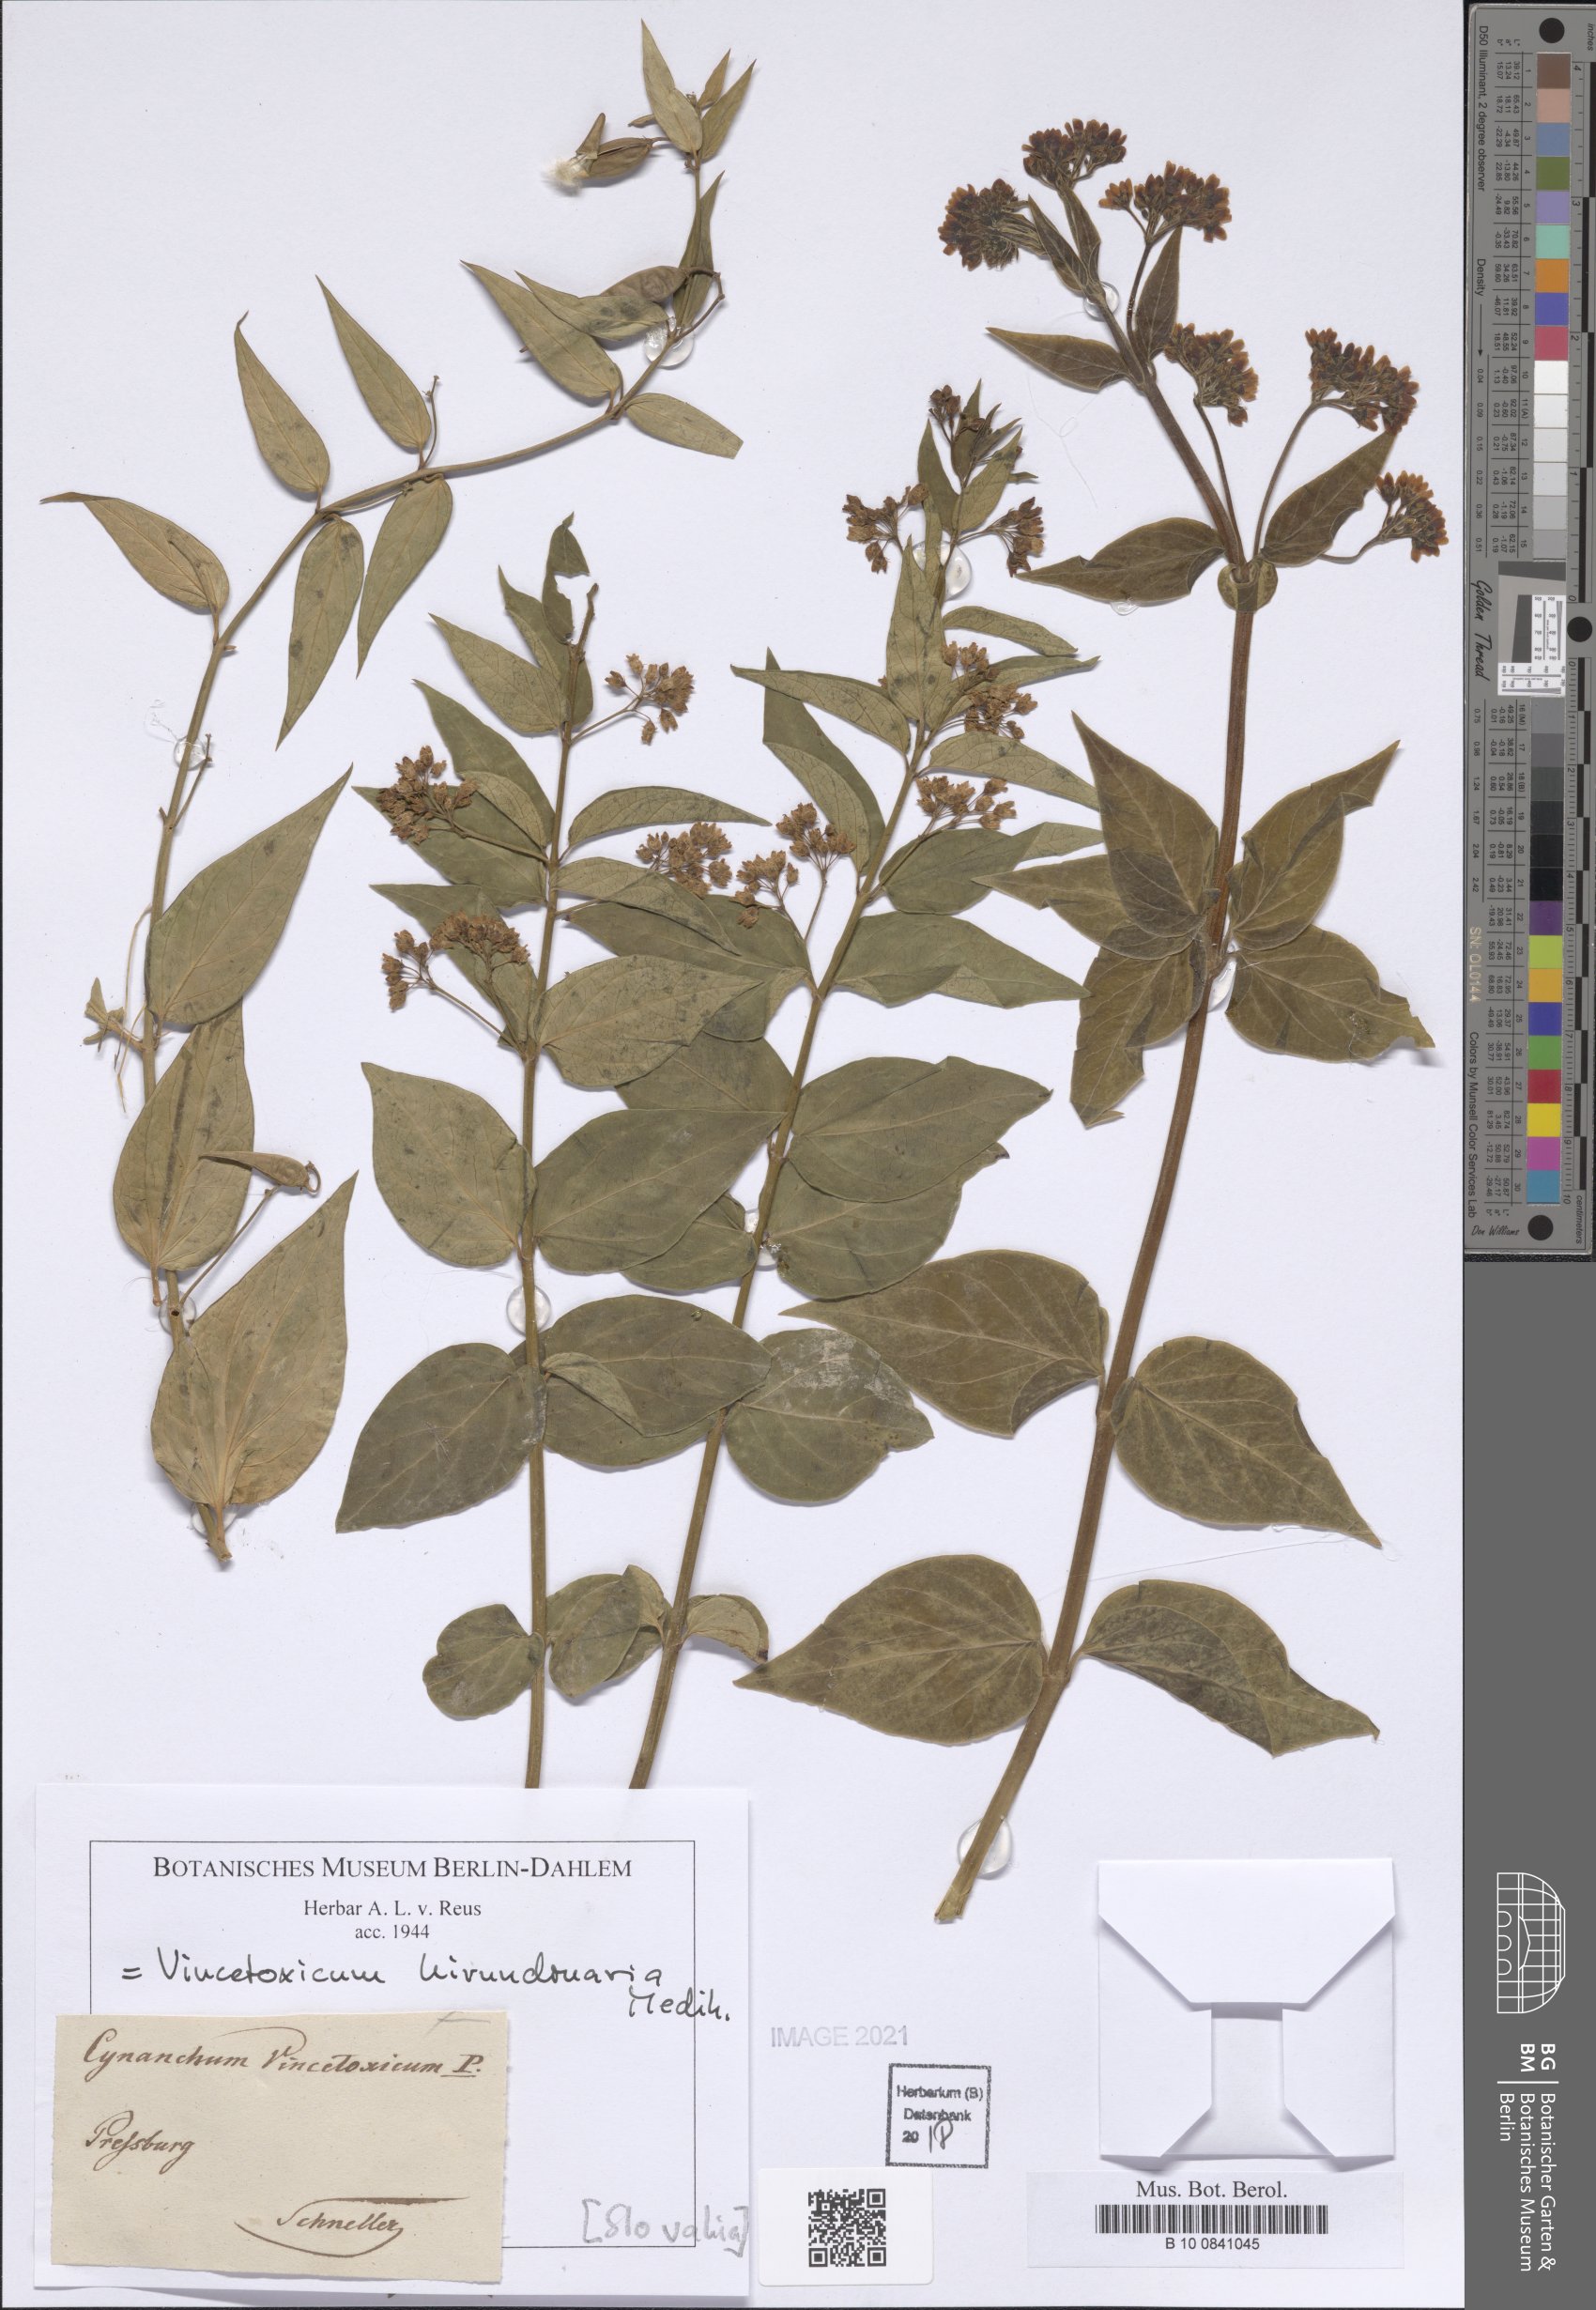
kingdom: Plantae
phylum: Tracheophyta
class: Magnoliopsida
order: Gentianales
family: Apocynaceae
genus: Vincetoxicum
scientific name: Vincetoxicum hirundinaria
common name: White swallowwort
